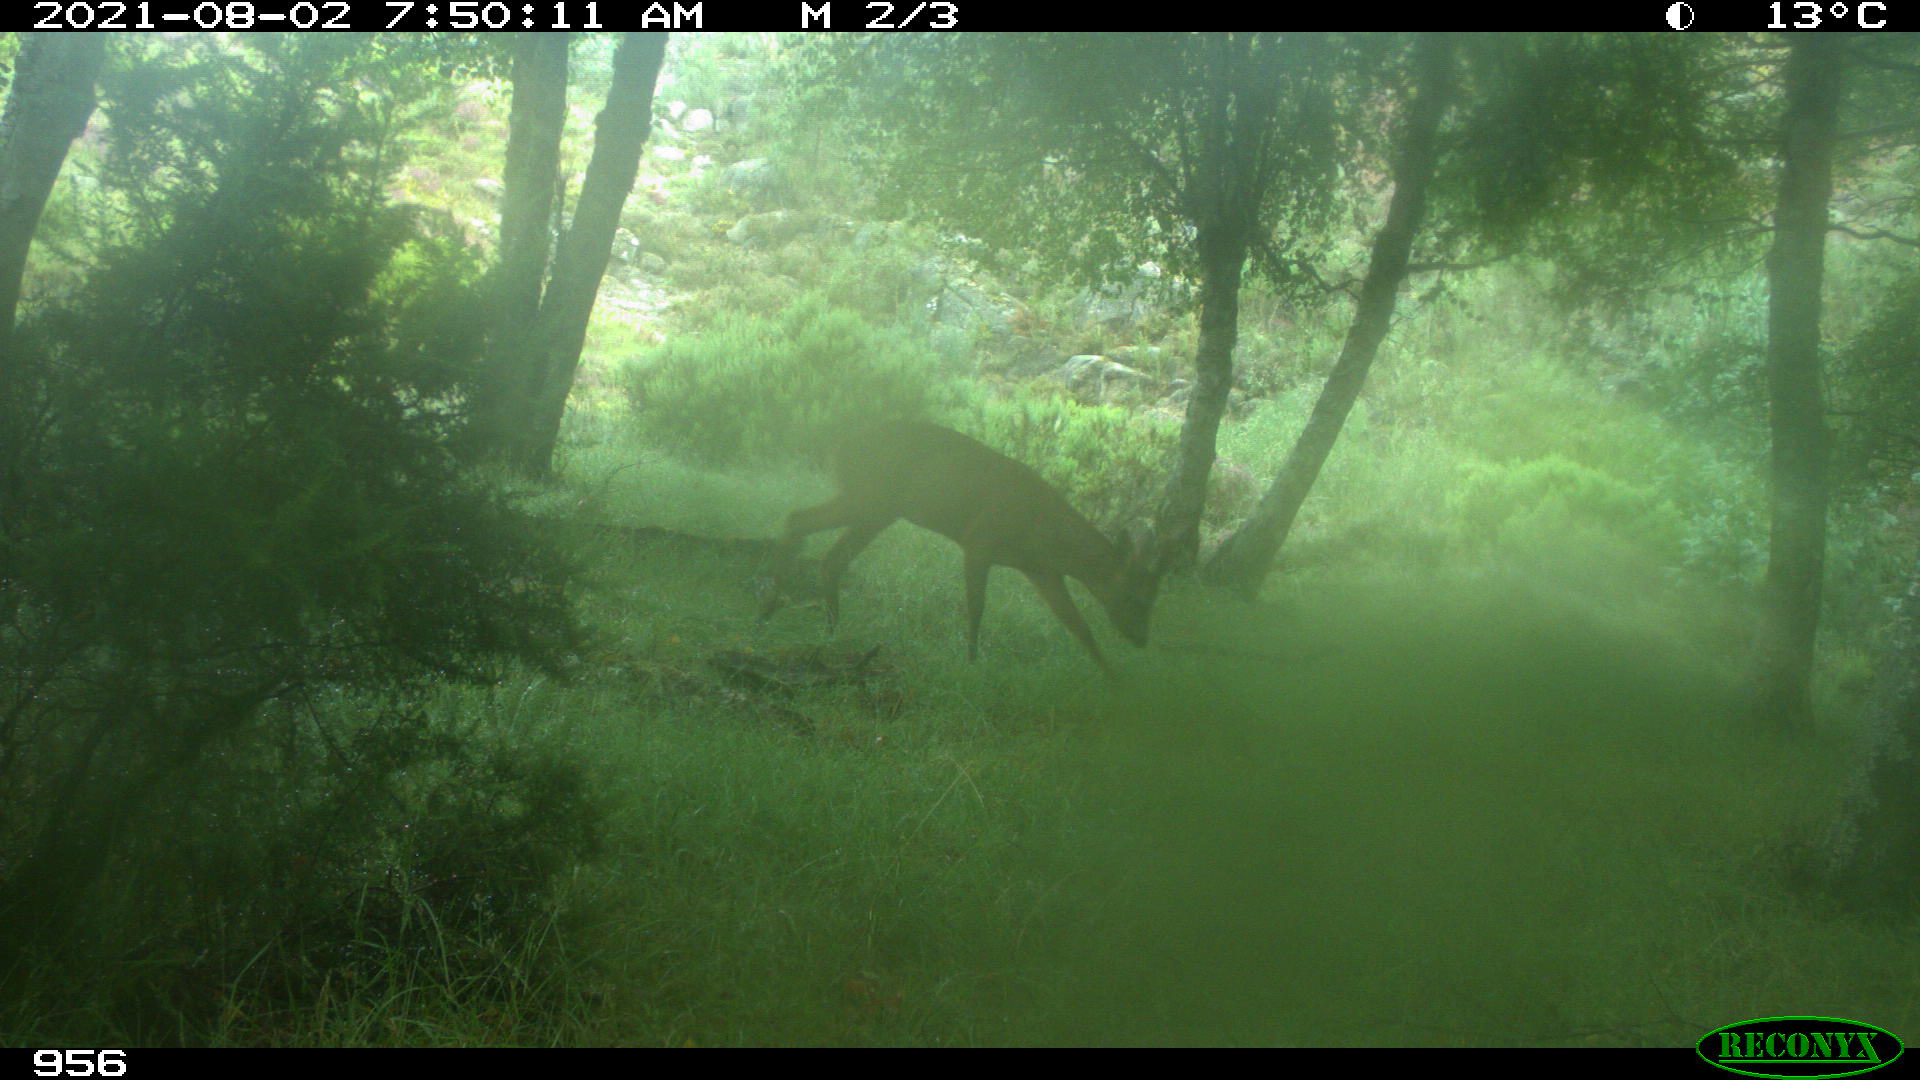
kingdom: Animalia
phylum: Chordata
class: Mammalia
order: Artiodactyla
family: Cervidae
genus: Capreolus
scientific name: Capreolus capreolus
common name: Western roe deer
